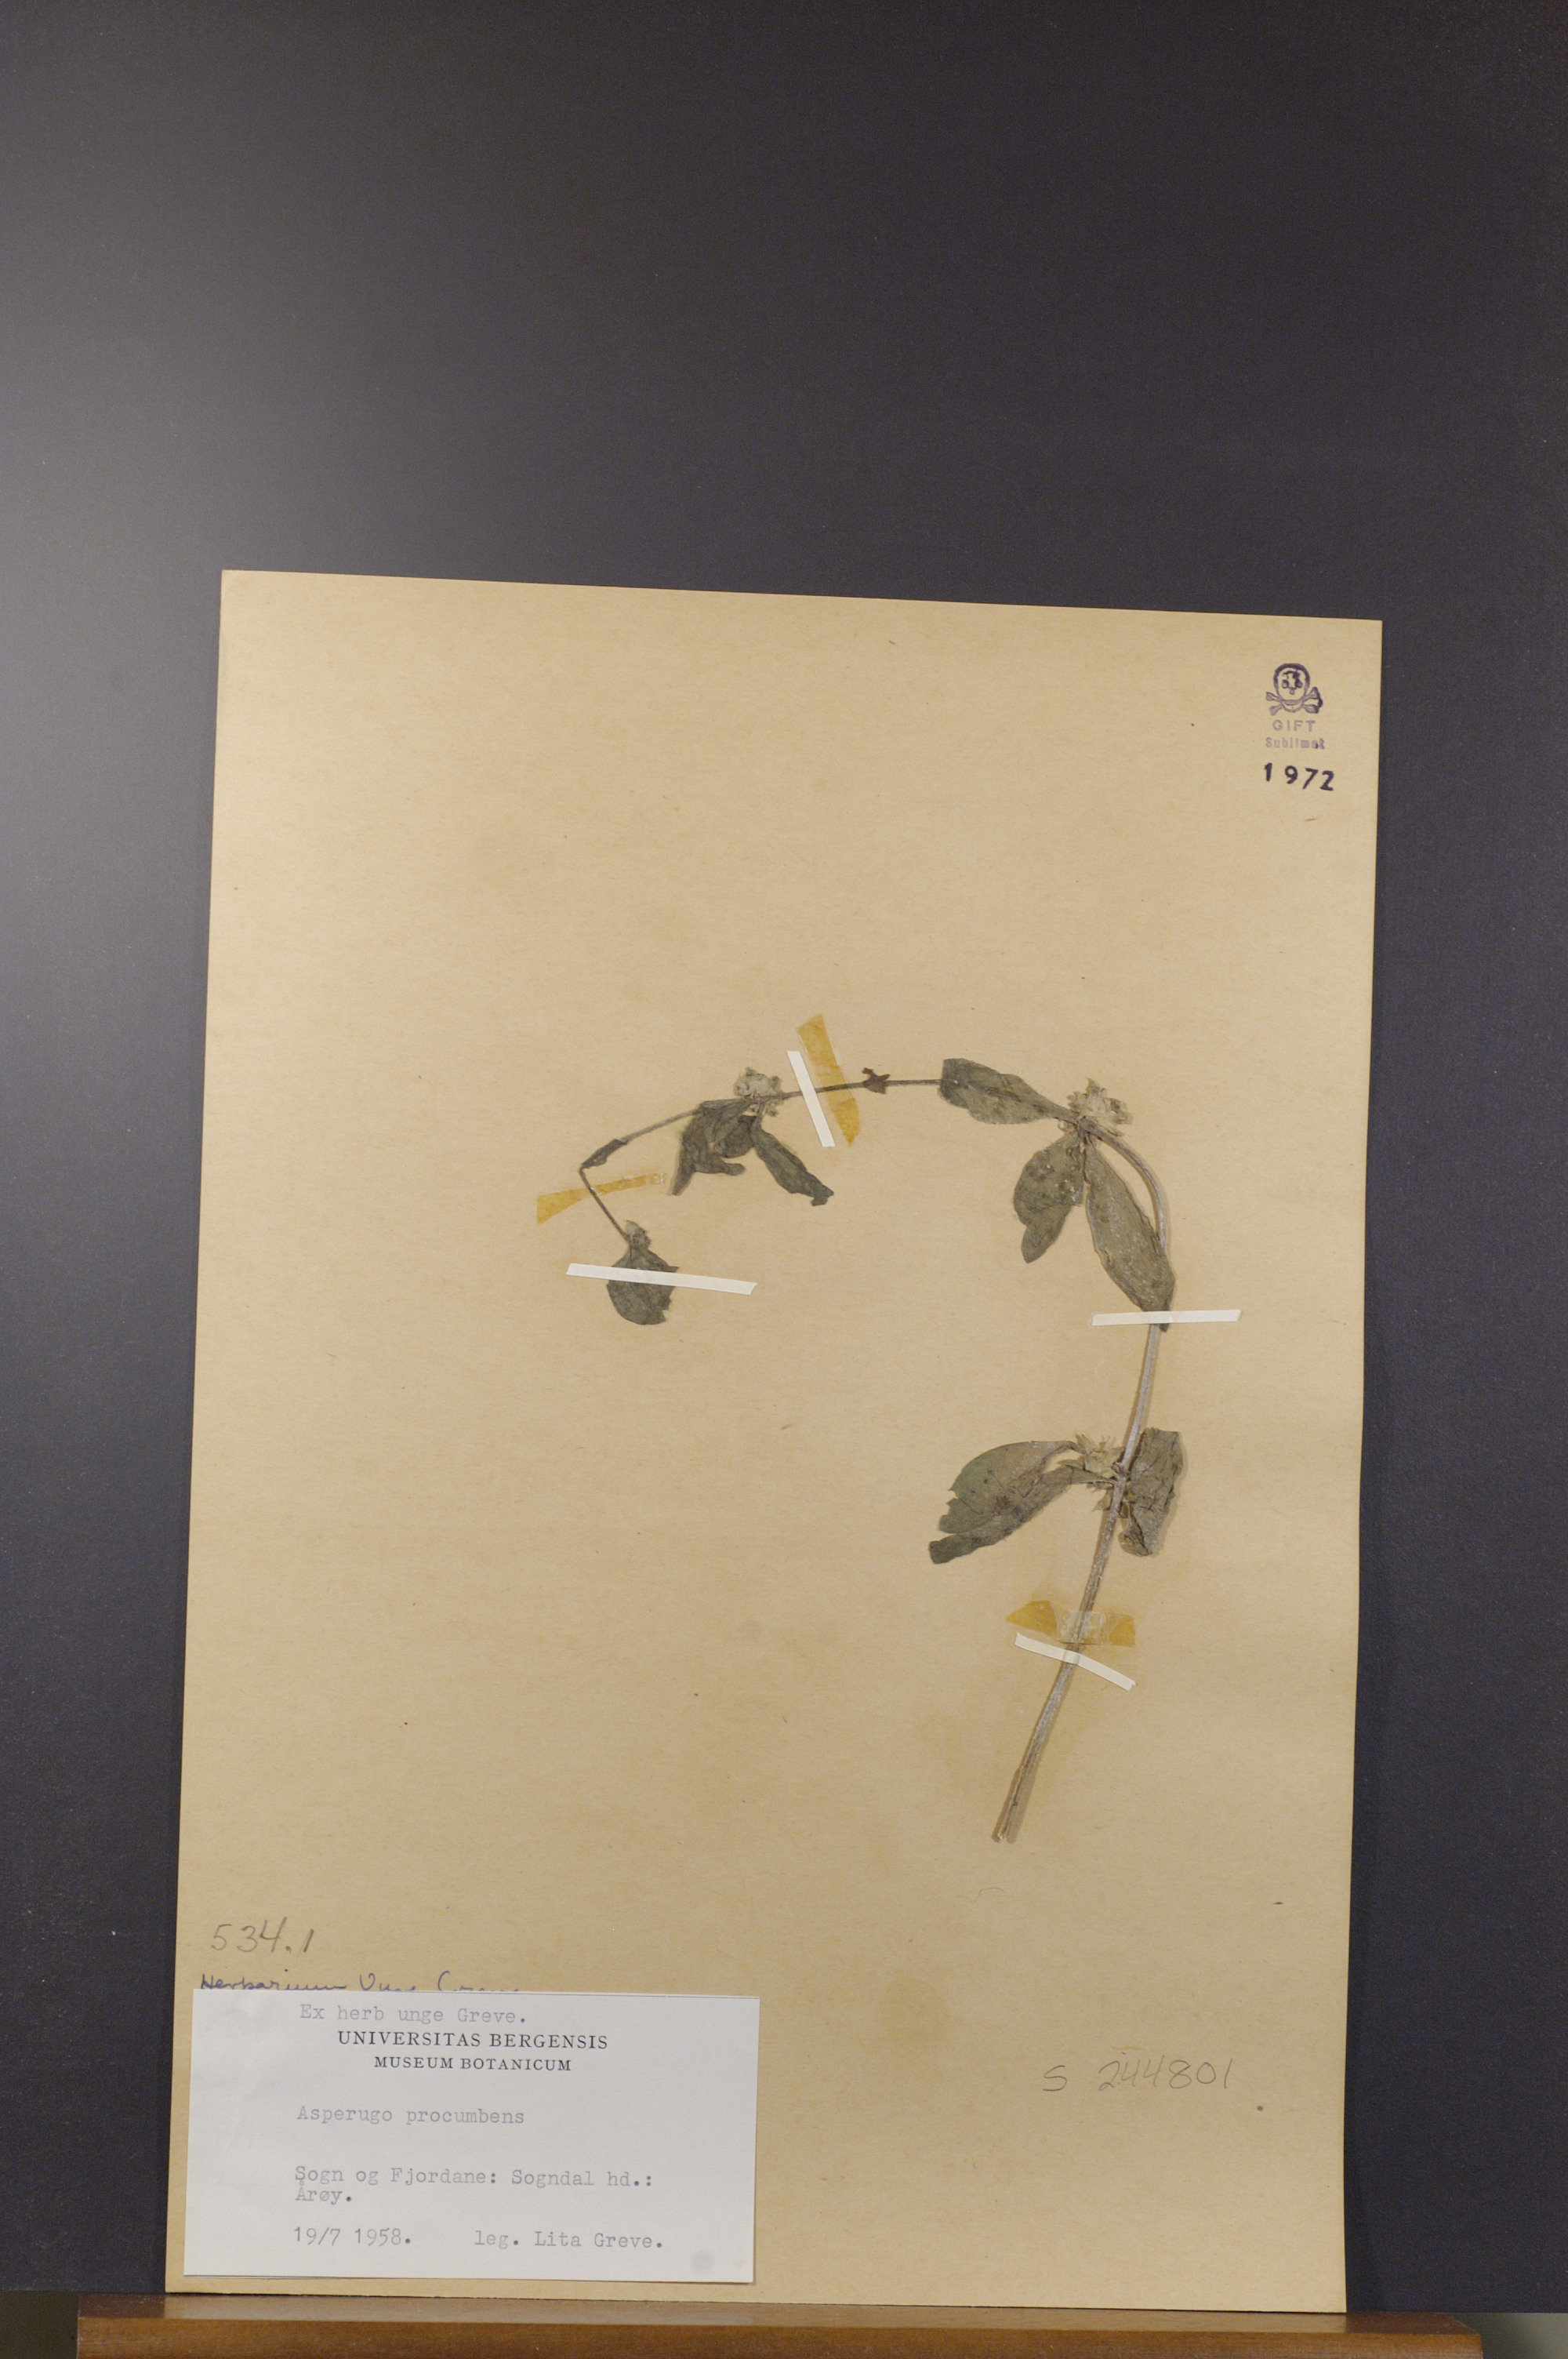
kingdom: Plantae
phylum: Tracheophyta
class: Magnoliopsida
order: Boraginales
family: Boraginaceae
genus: Asperugo
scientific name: Asperugo procumbens
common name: Madwort
